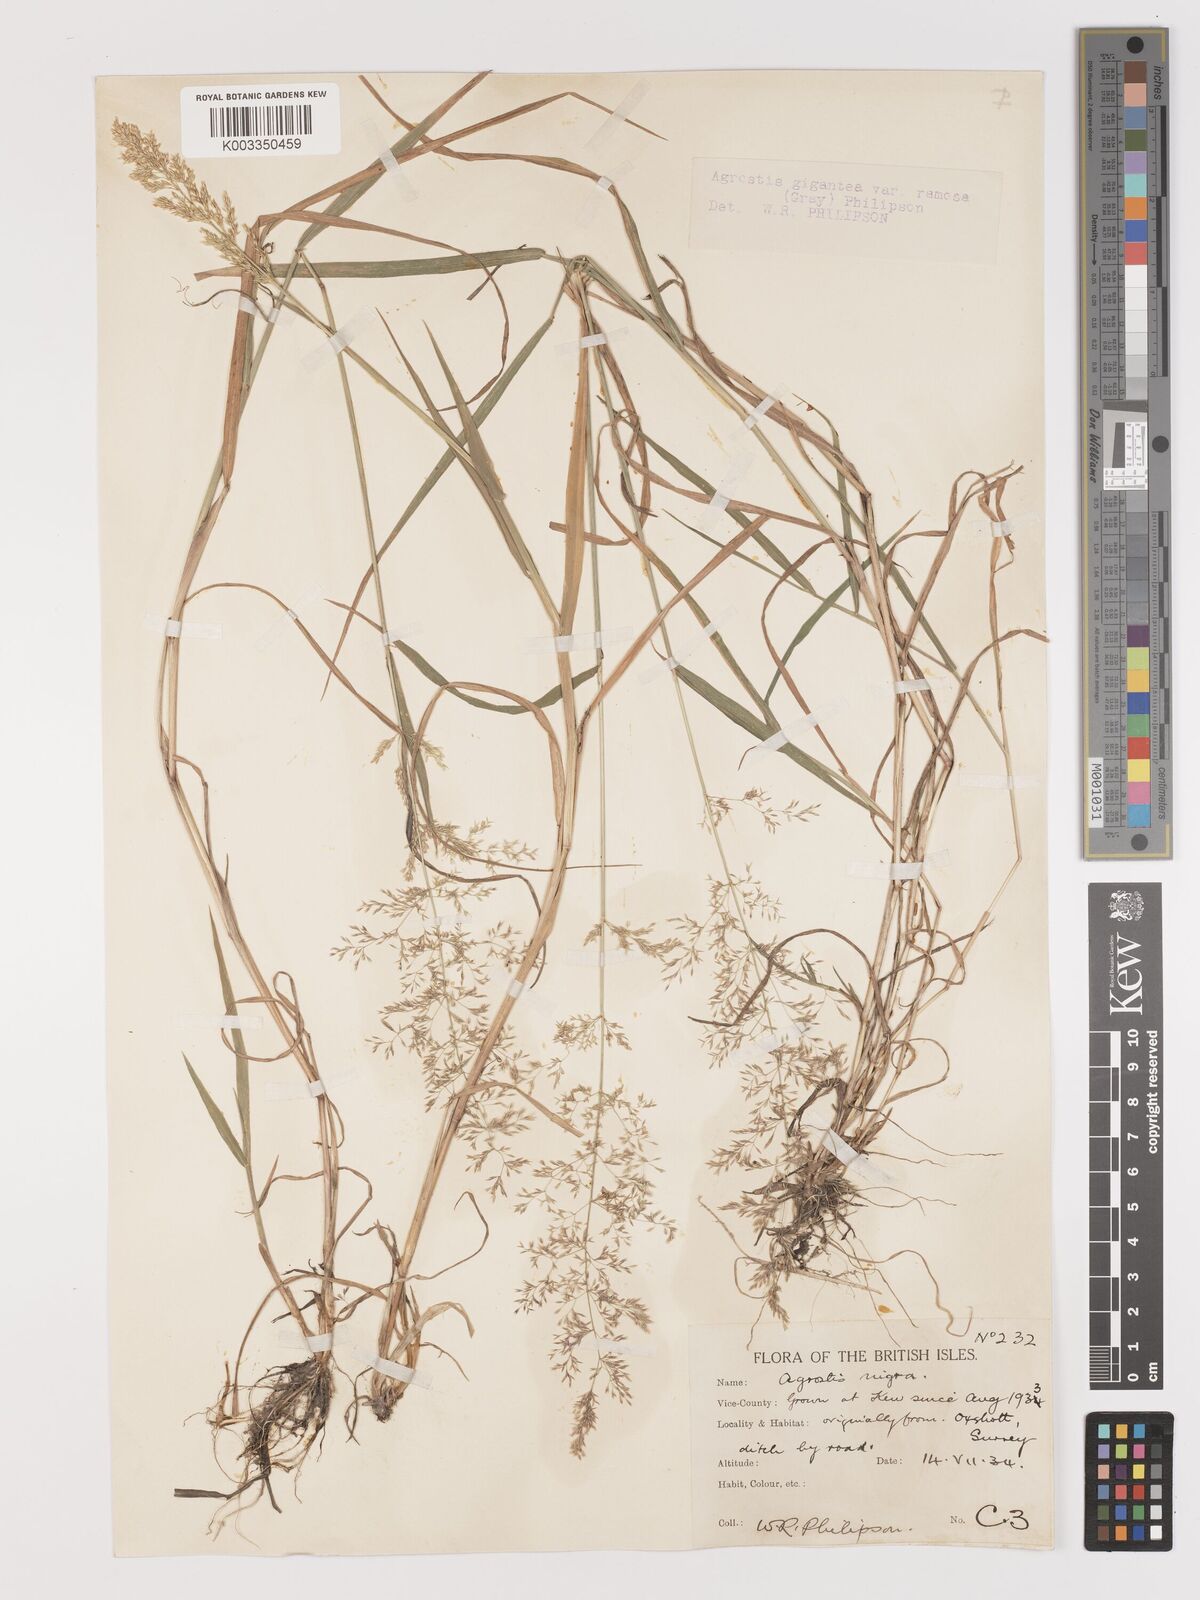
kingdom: Plantae
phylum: Tracheophyta
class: Liliopsida
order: Poales
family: Poaceae
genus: Agrostis
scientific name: Agrostis gigantea
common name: Black bent
